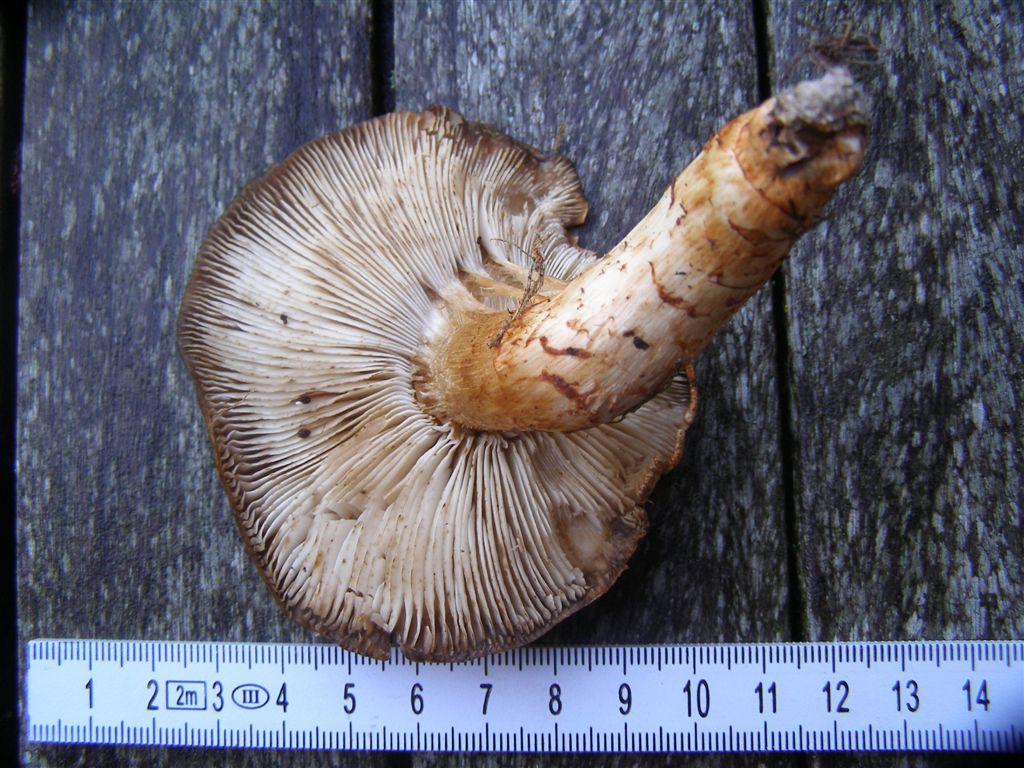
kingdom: Fungi
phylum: Basidiomycota
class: Agaricomycetes
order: Agaricales
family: Tricholomataceae
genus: Tricholoma
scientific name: Tricholoma focale
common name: halsbånd-ridderhat
